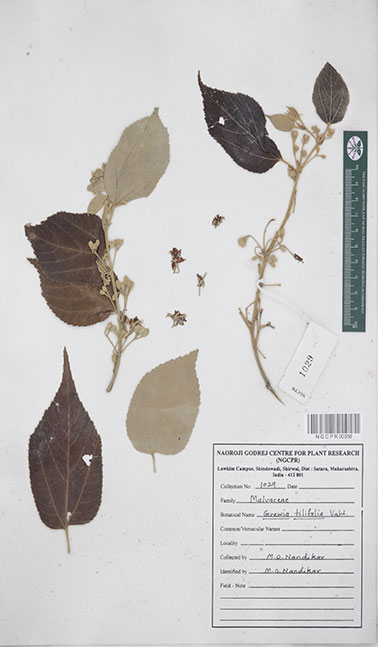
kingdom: Plantae
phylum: Tracheophyta
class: Magnoliopsida
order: Malvales
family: Malvaceae
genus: Grewia
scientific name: Grewia tiliifolia
